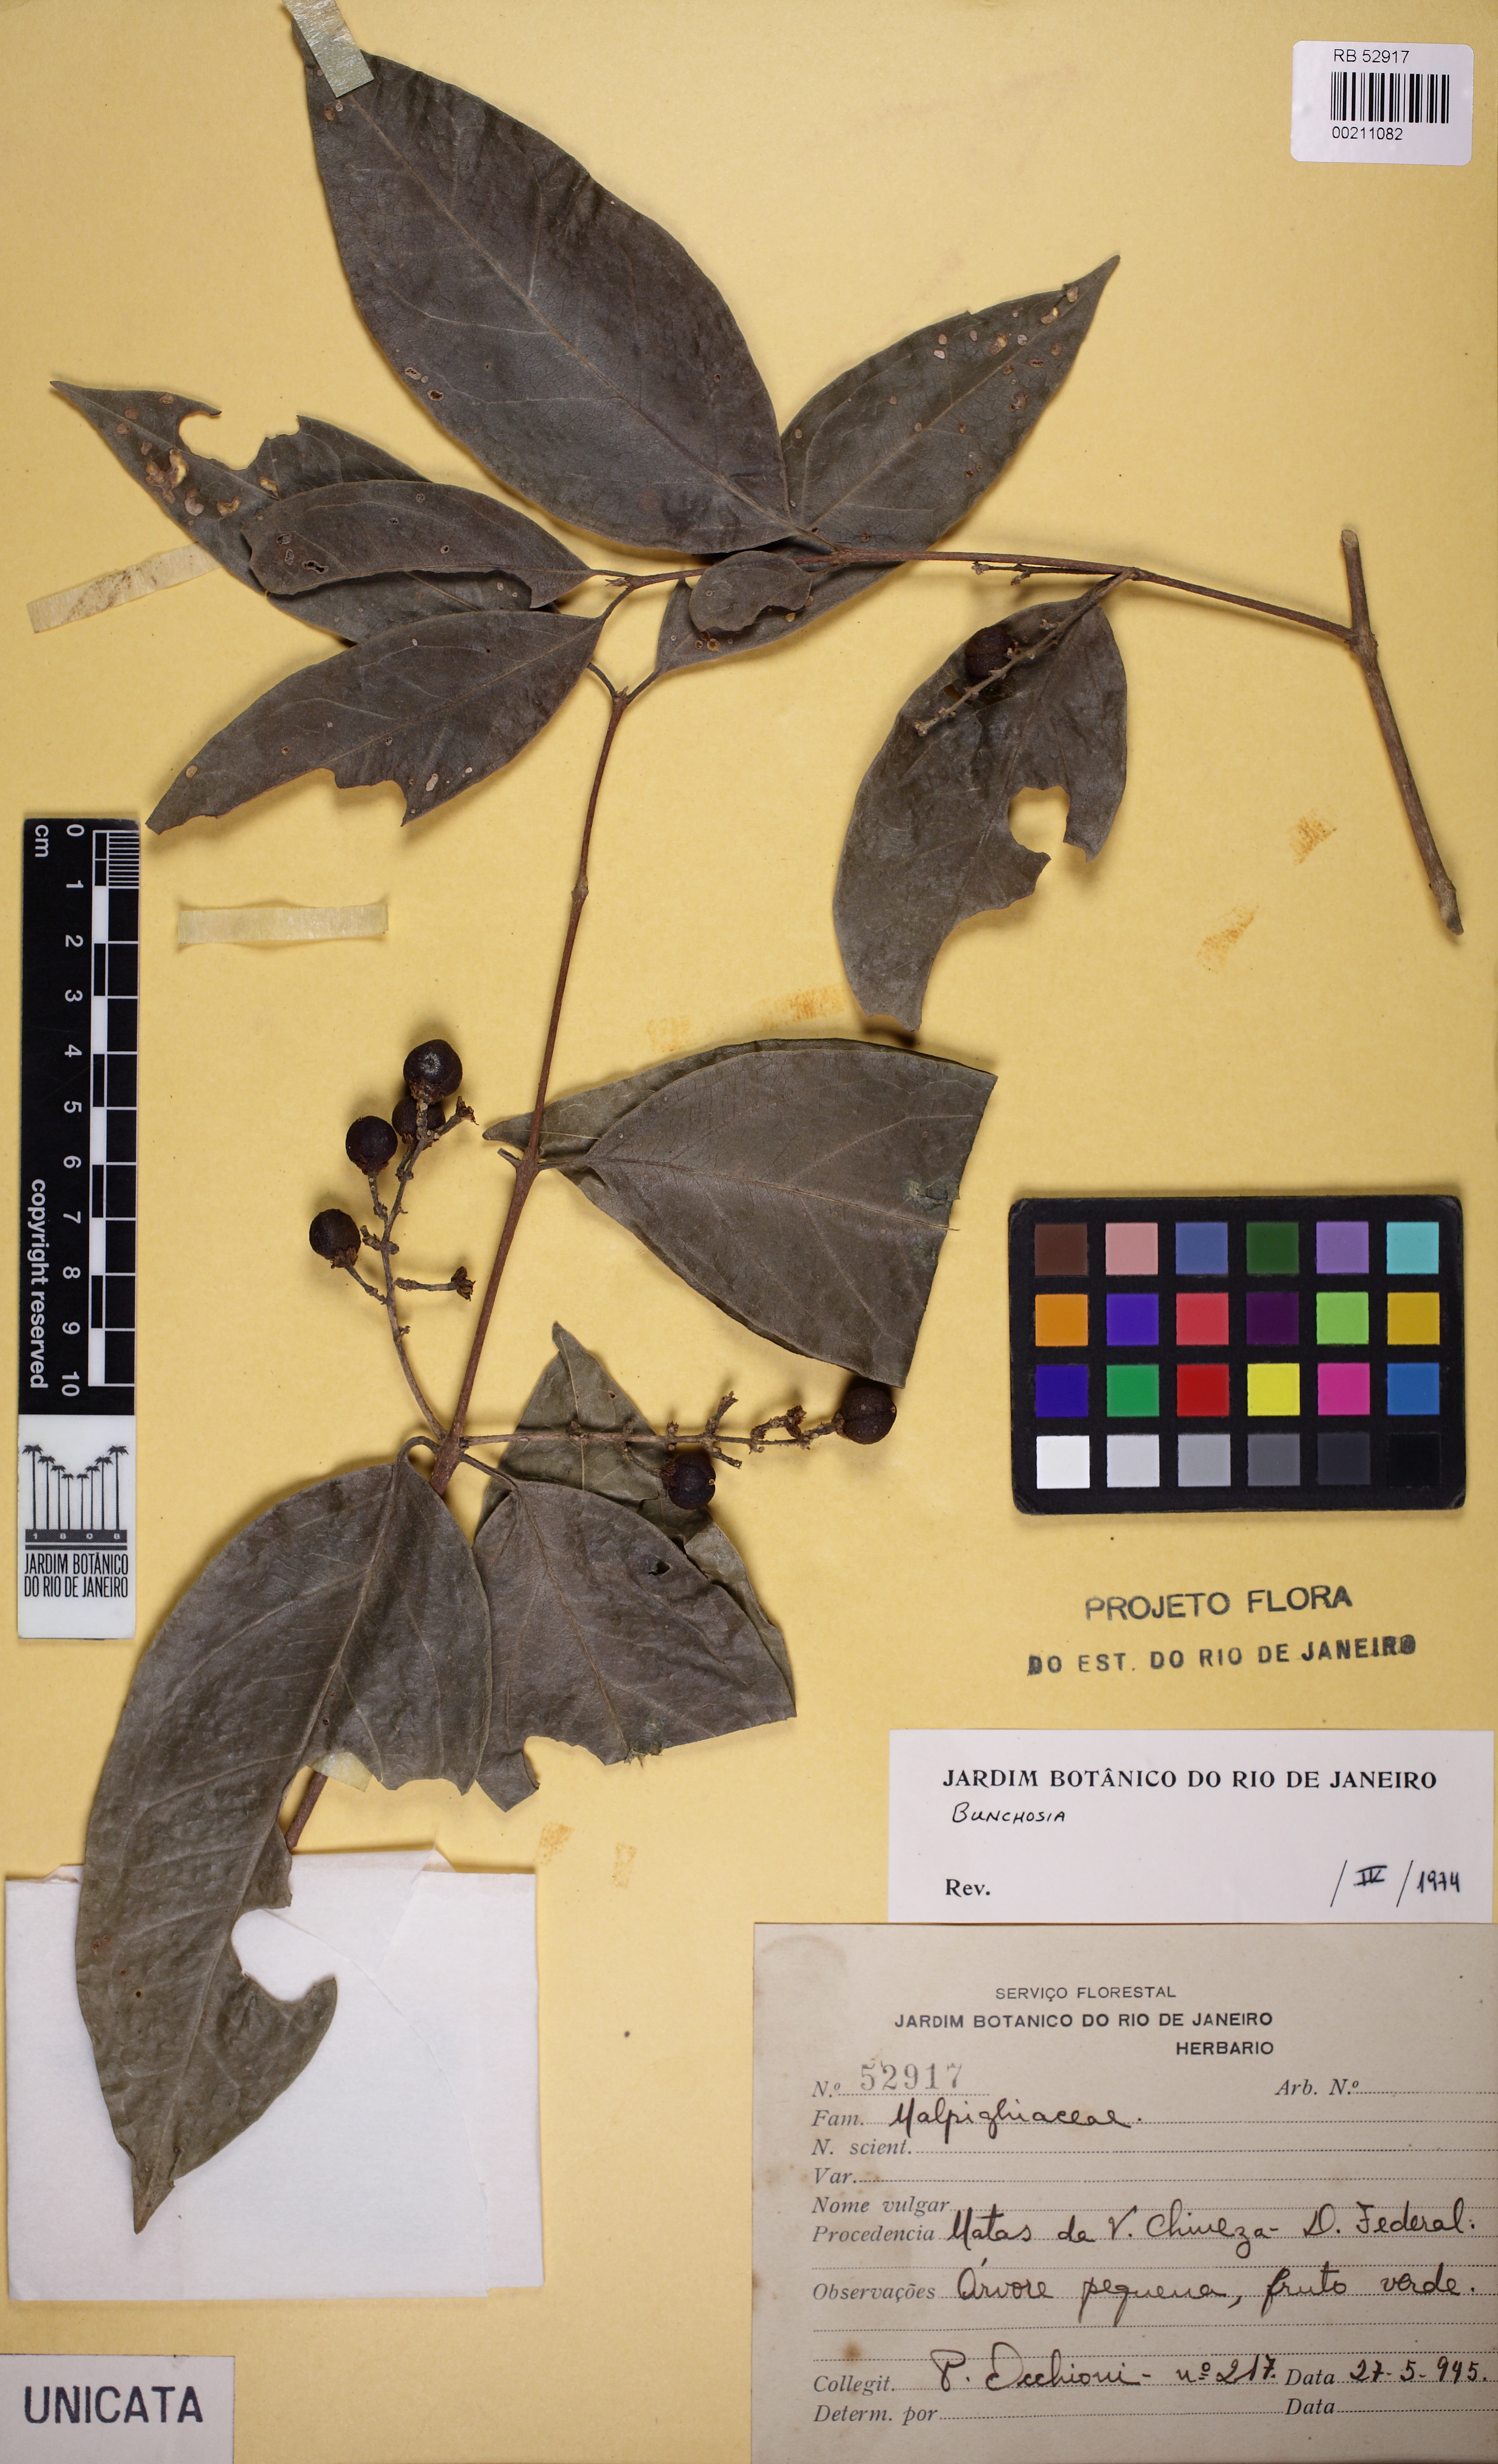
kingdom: Plantae
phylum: Tracheophyta
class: Magnoliopsida
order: Malpighiales
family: Malpighiaceae
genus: Bunchosia
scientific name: Bunchosia maritima
